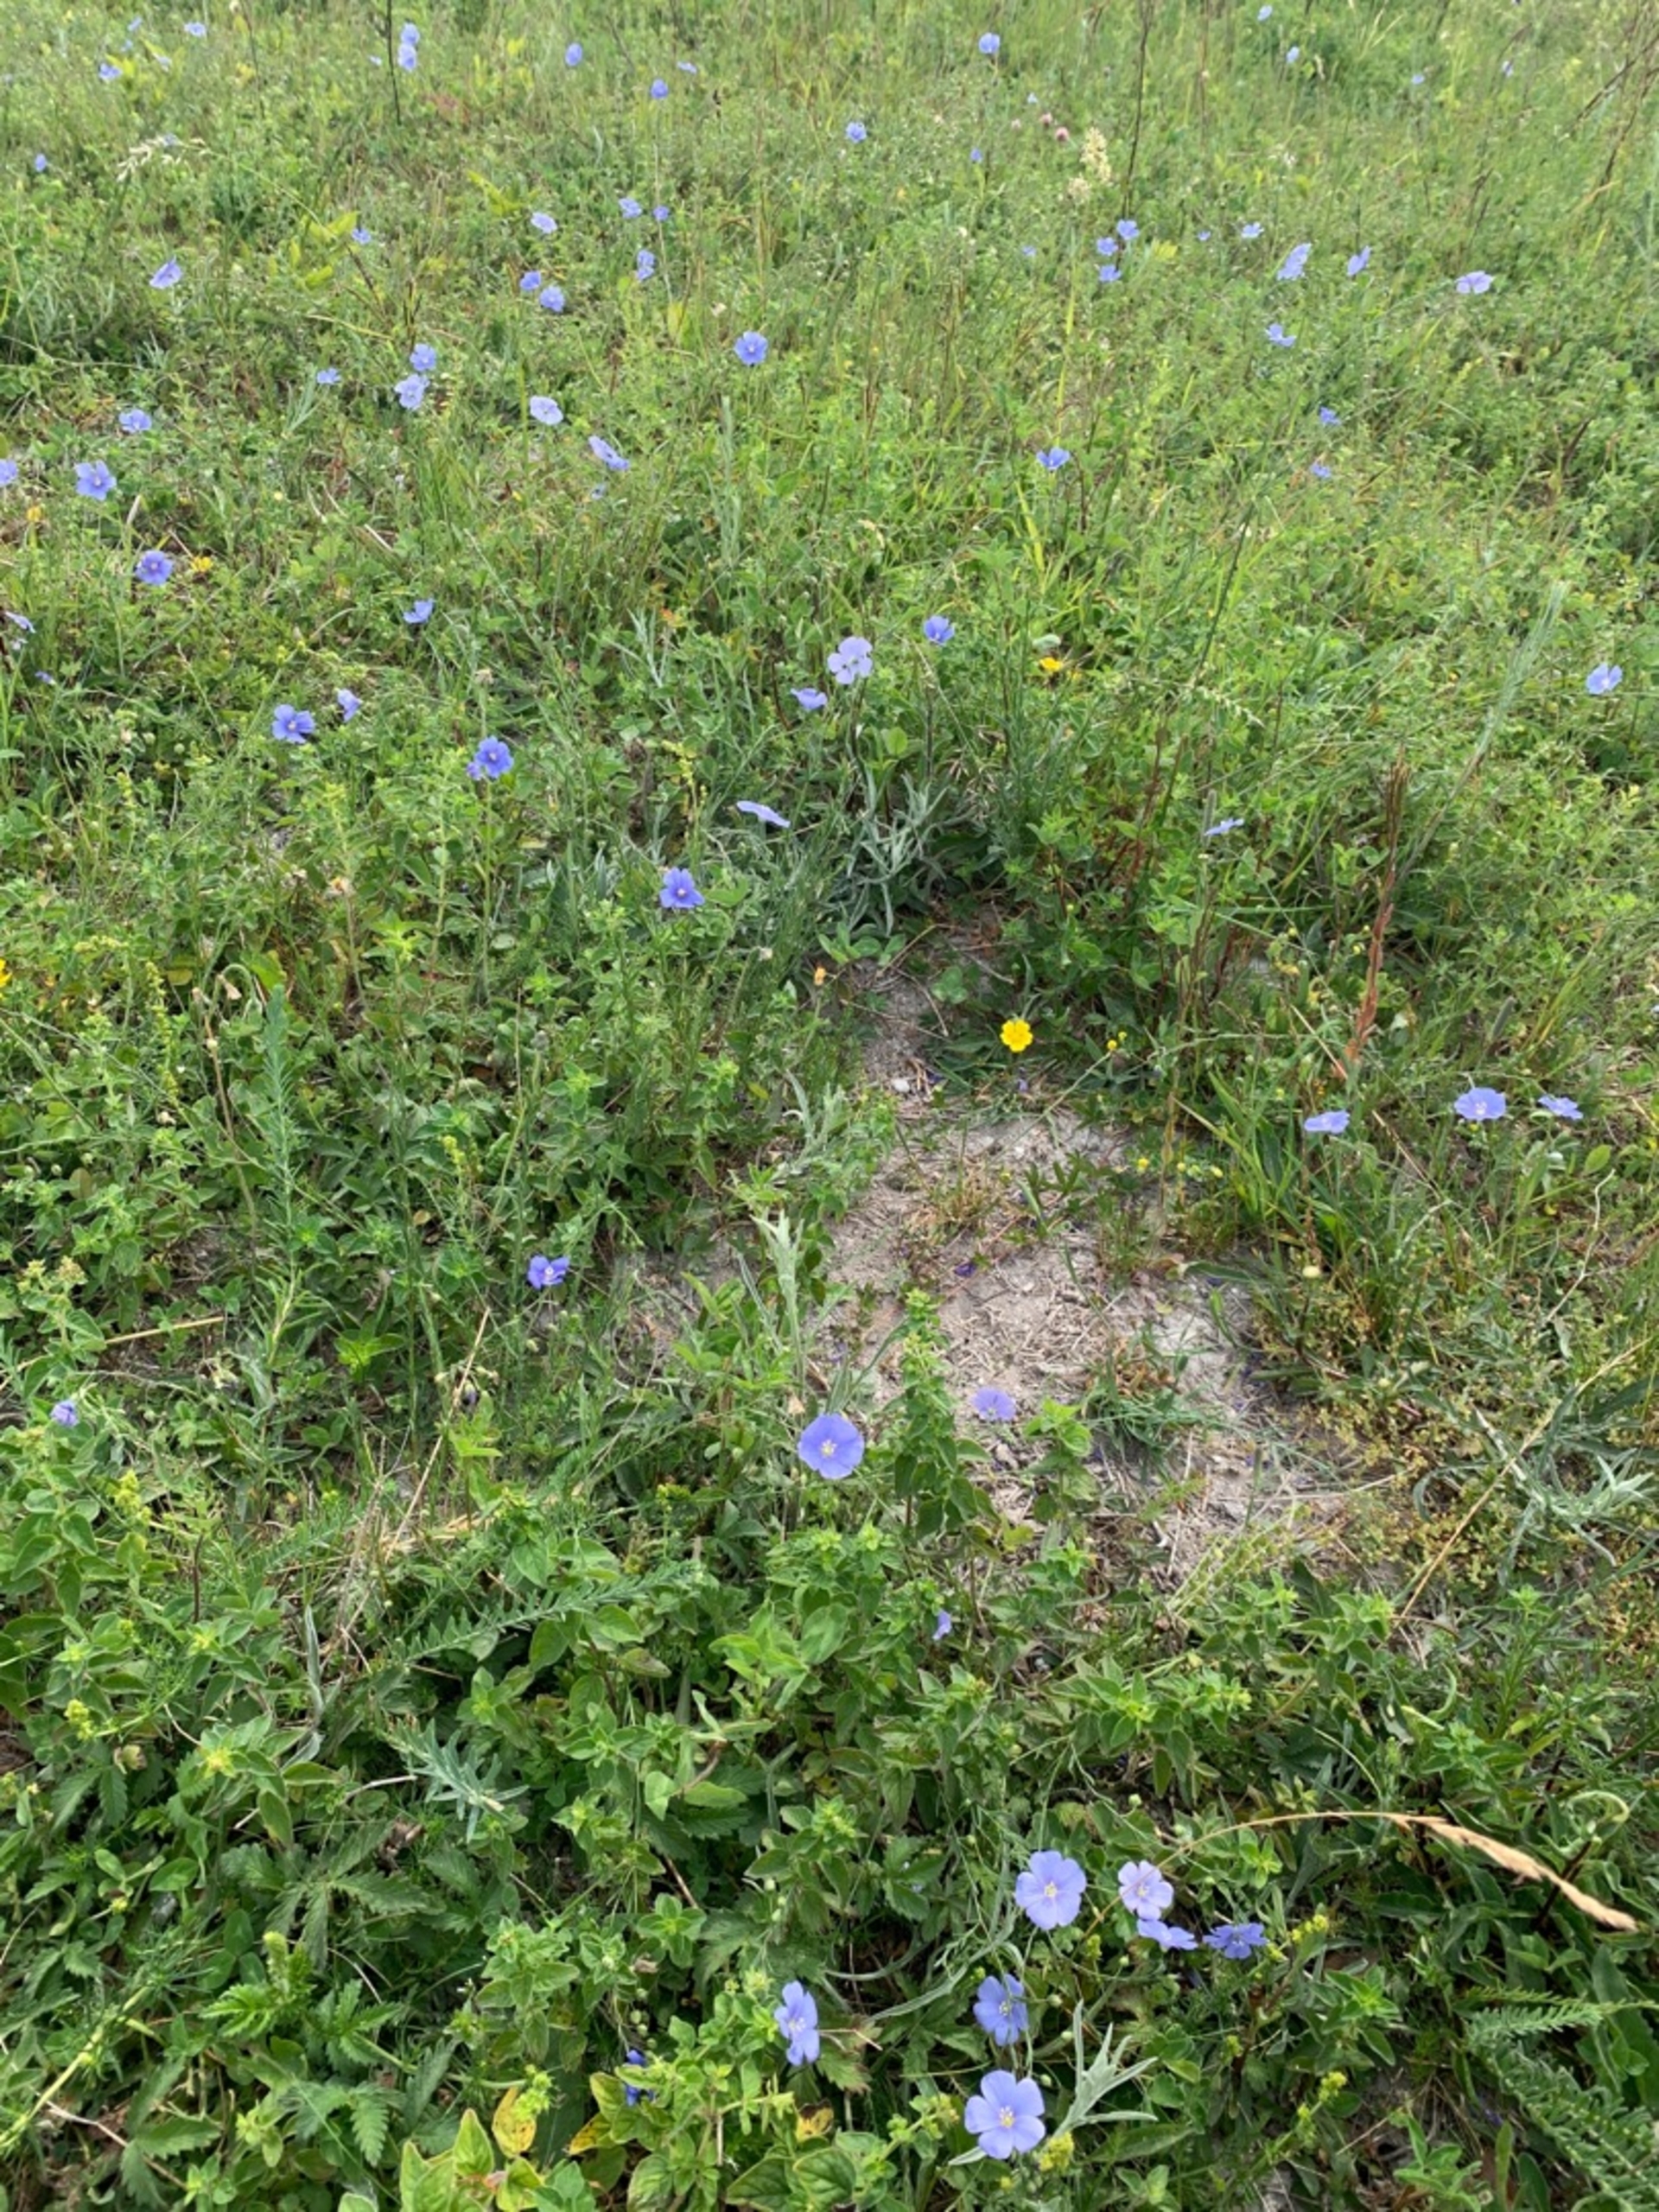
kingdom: Plantae
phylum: Tracheophyta
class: Magnoliopsida
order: Malpighiales
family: Linaceae
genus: Linum
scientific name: Linum austriacum
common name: Østrigsk hør
